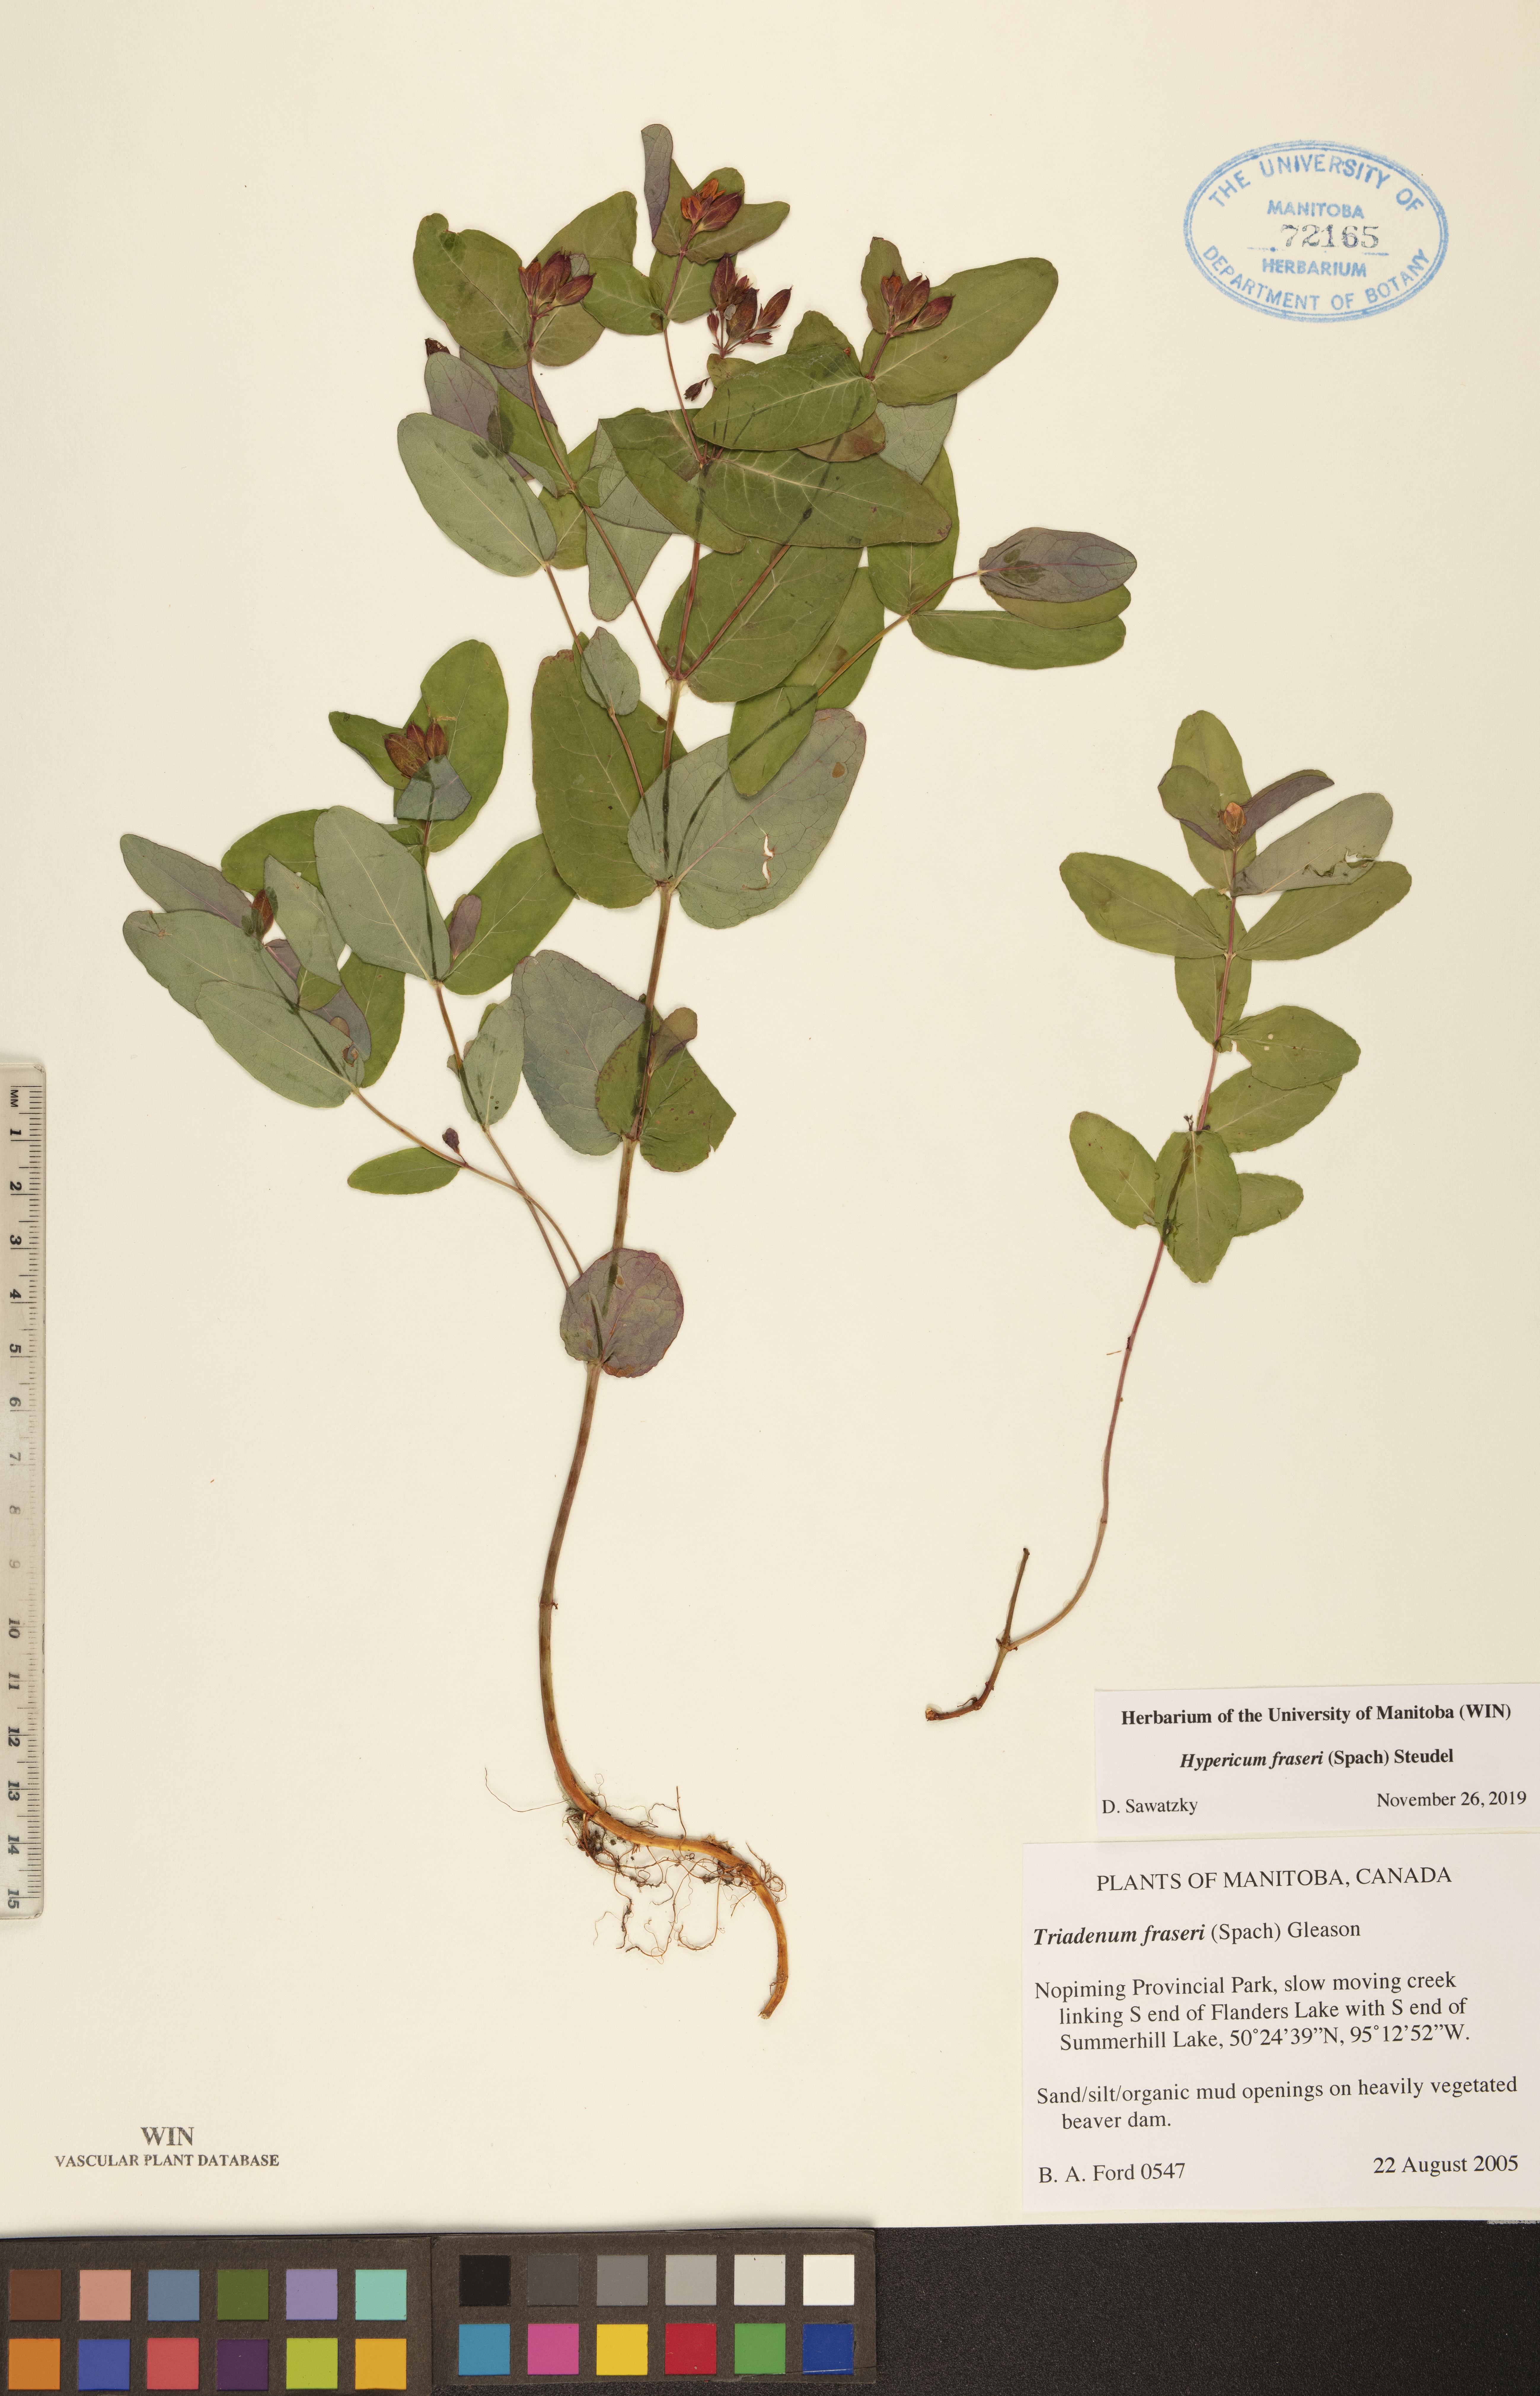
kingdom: Plantae
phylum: Tracheophyta
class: Magnoliopsida
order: Malpighiales
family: Hypericaceae
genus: Triadenum
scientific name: Triadenum fraseri
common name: Fraser's marsh st. johnswort
